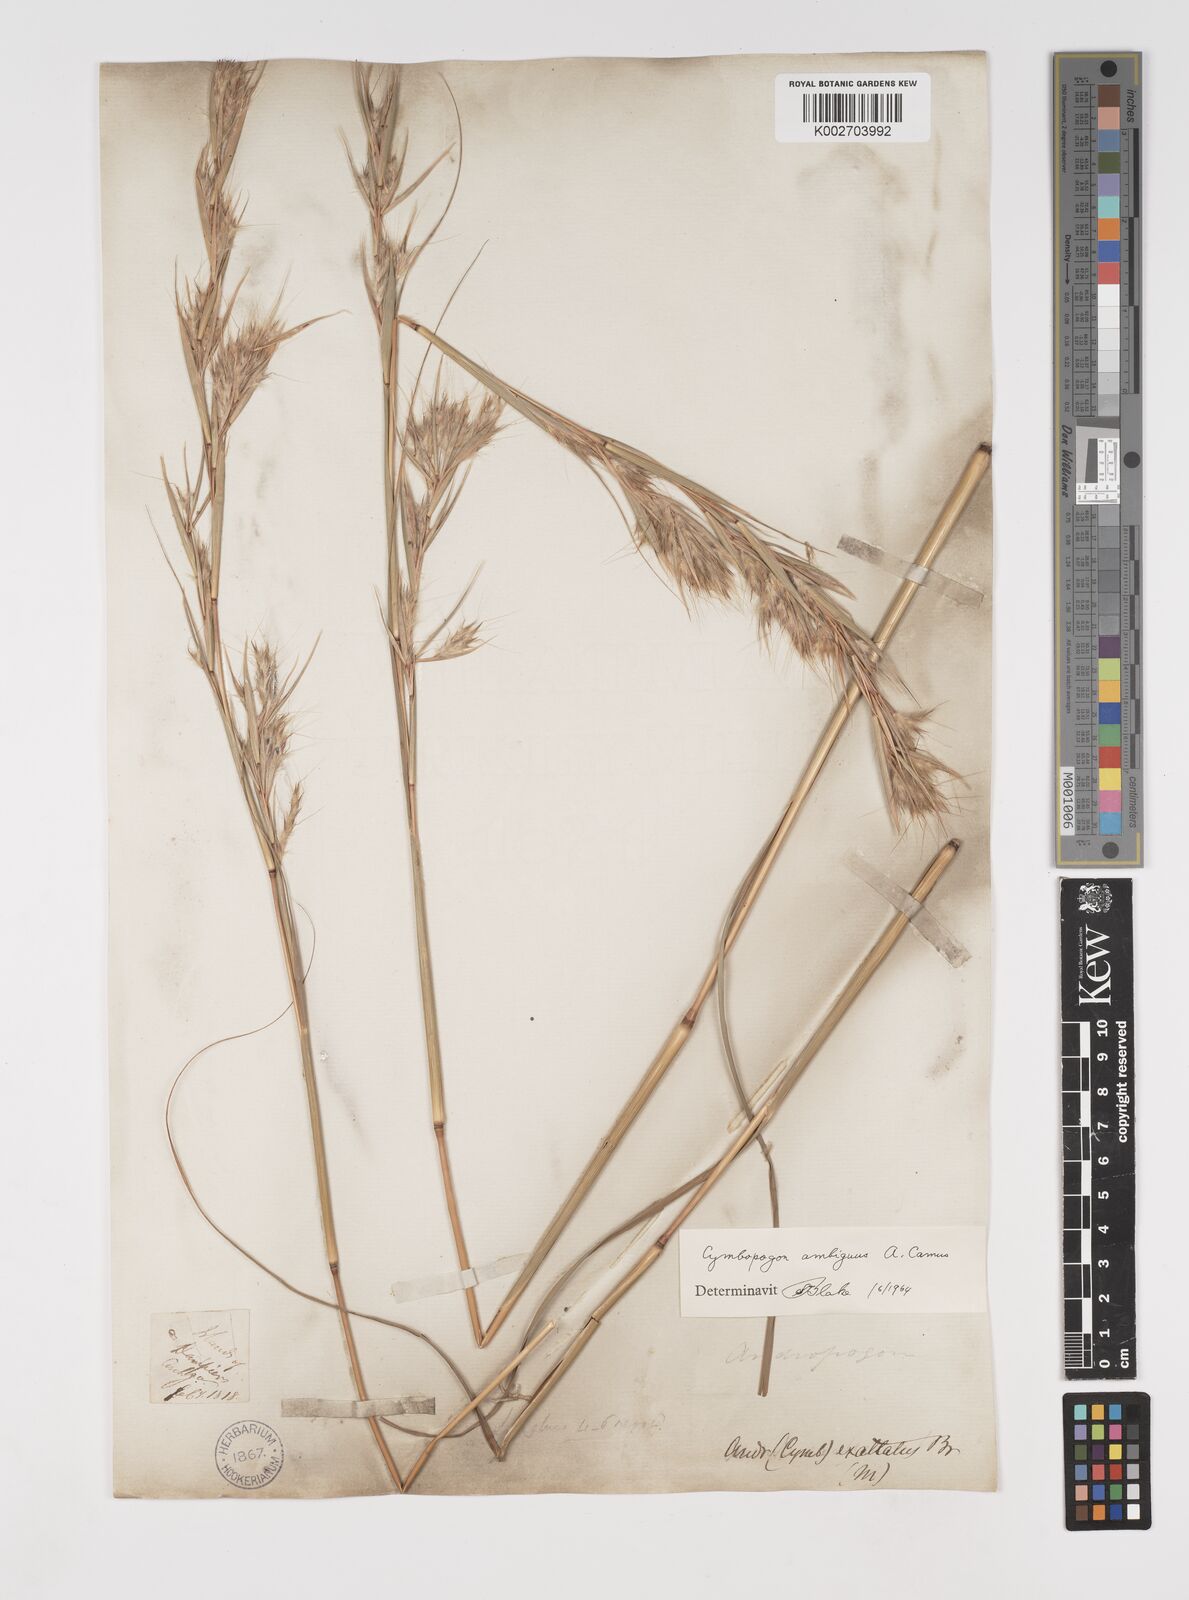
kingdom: Plantae
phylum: Tracheophyta
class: Liliopsida
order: Poales
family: Poaceae
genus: Cymbopogon
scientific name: Cymbopogon ambiguus
